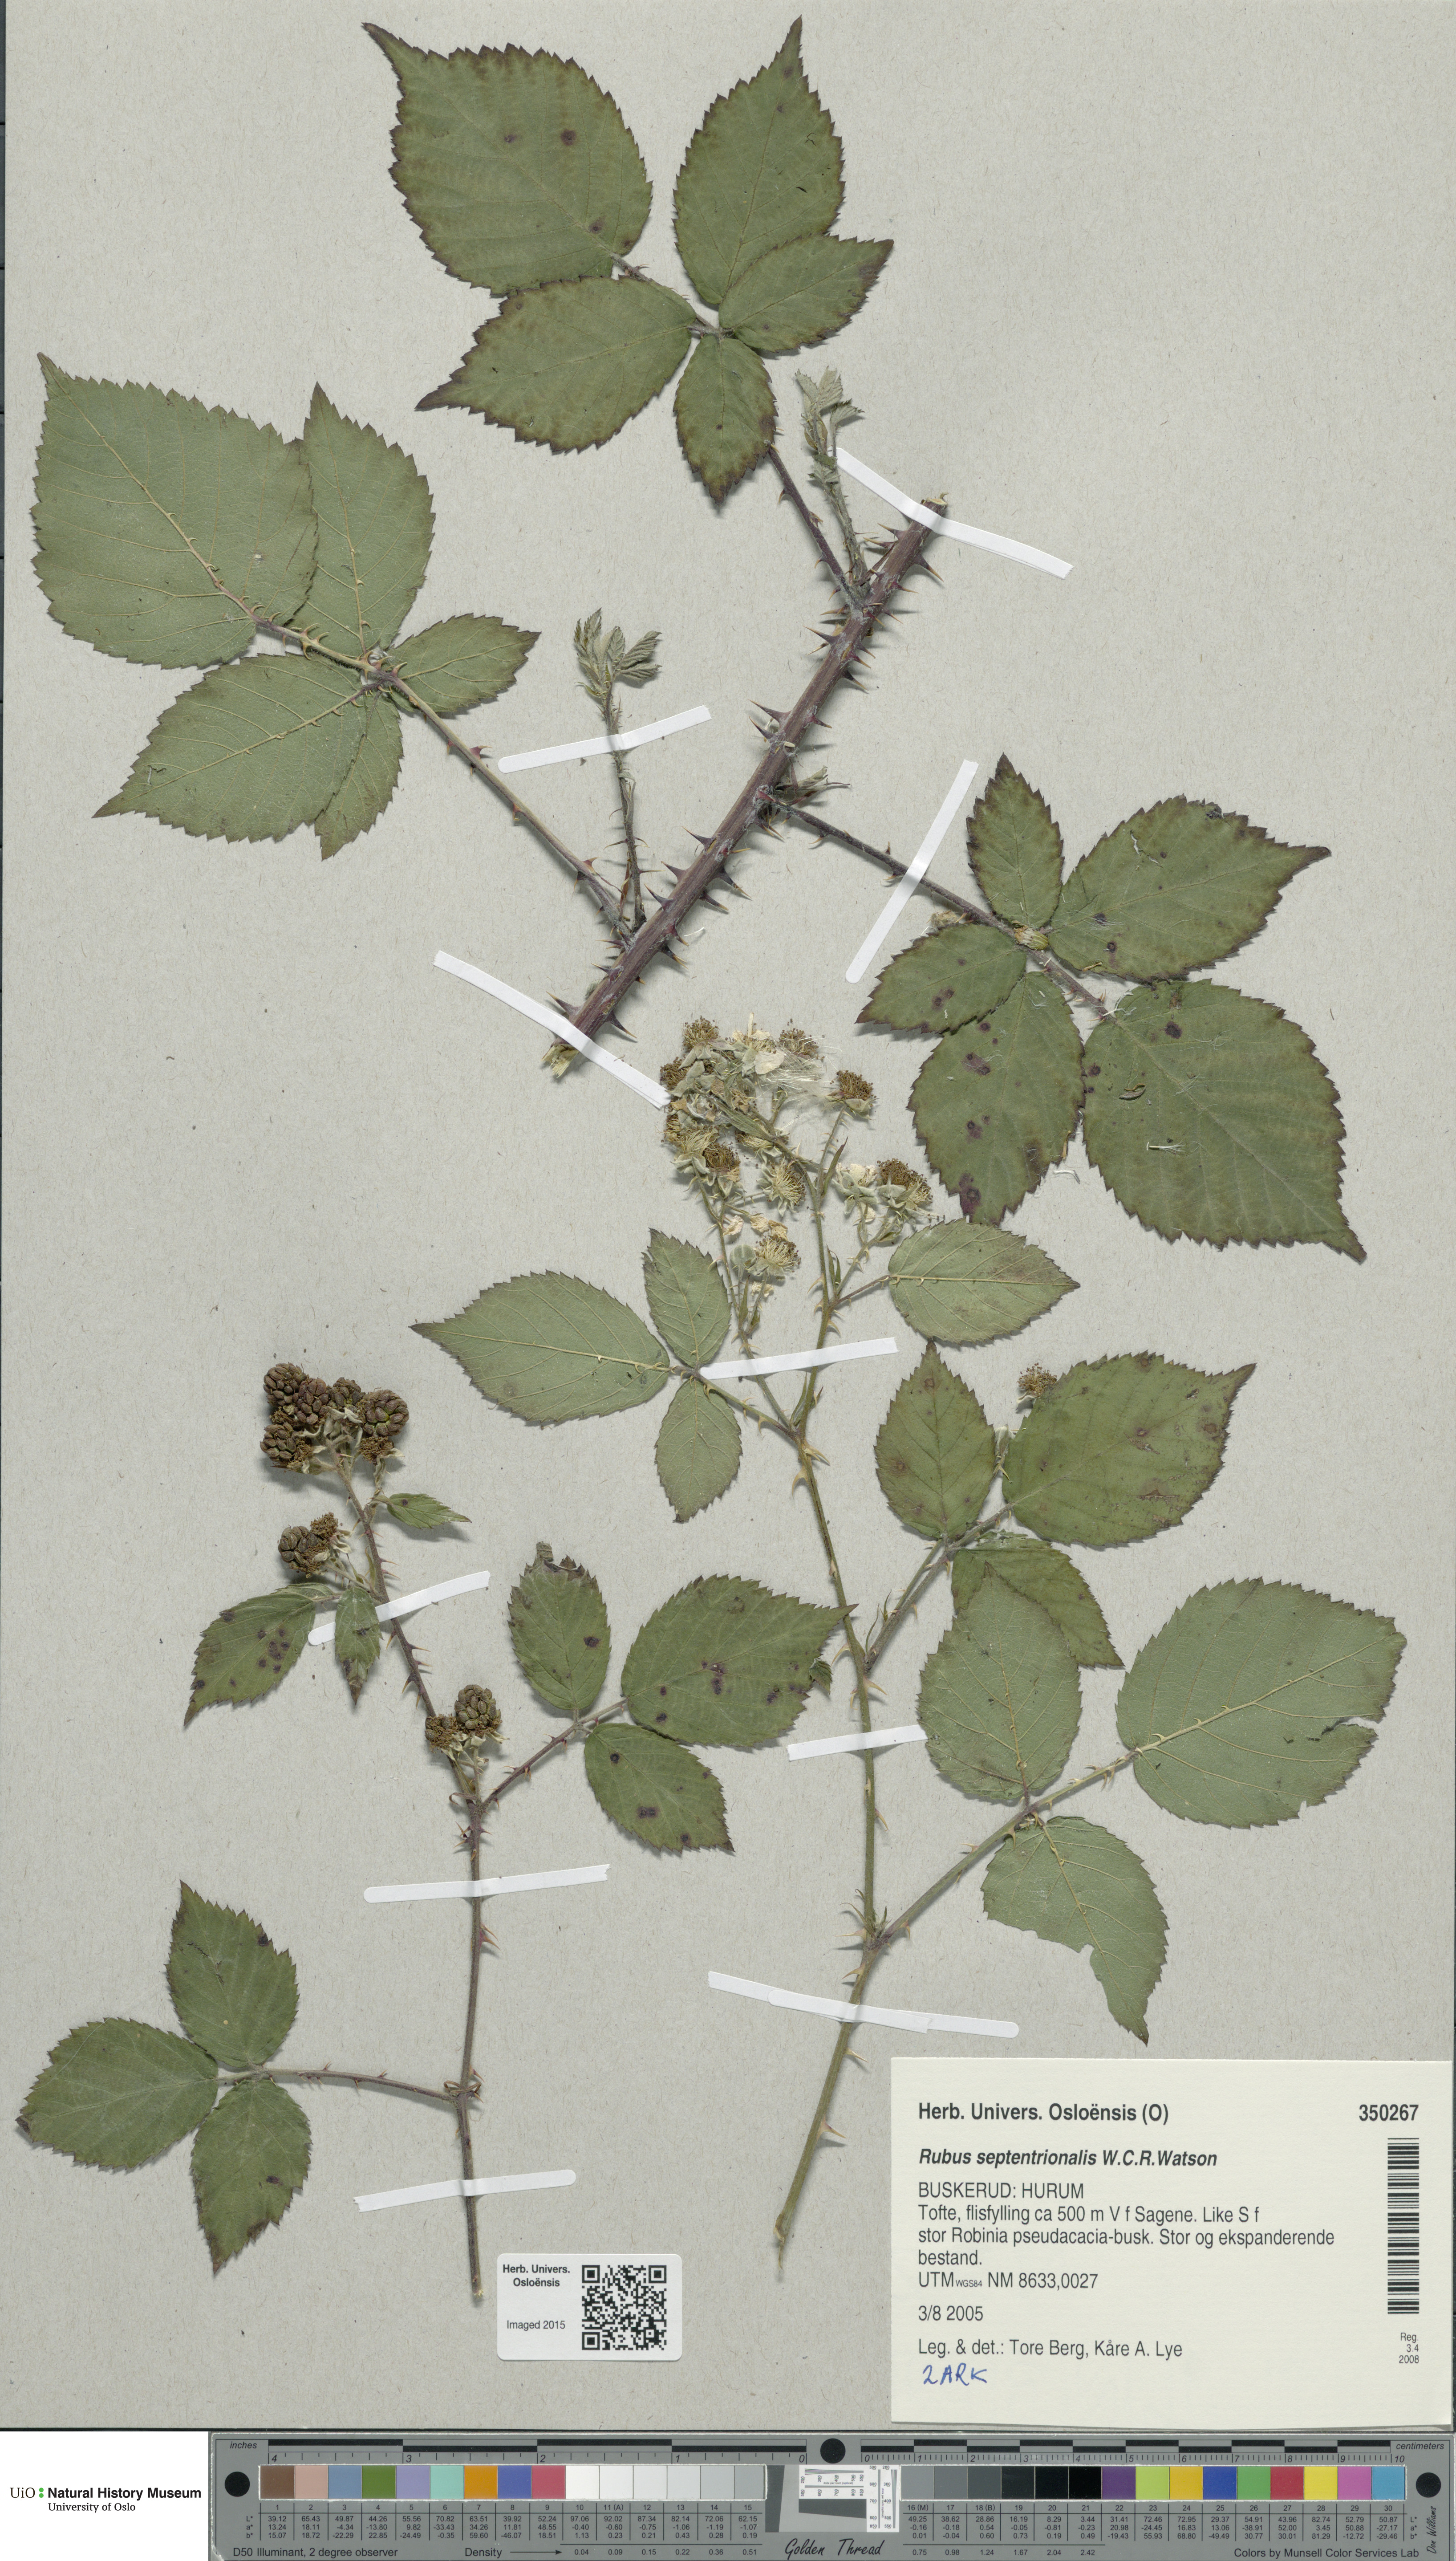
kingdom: Plantae
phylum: Tracheophyta
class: Magnoliopsida
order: Rosales
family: Rosaceae
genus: Rubus
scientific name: Rubus septentrionalis
